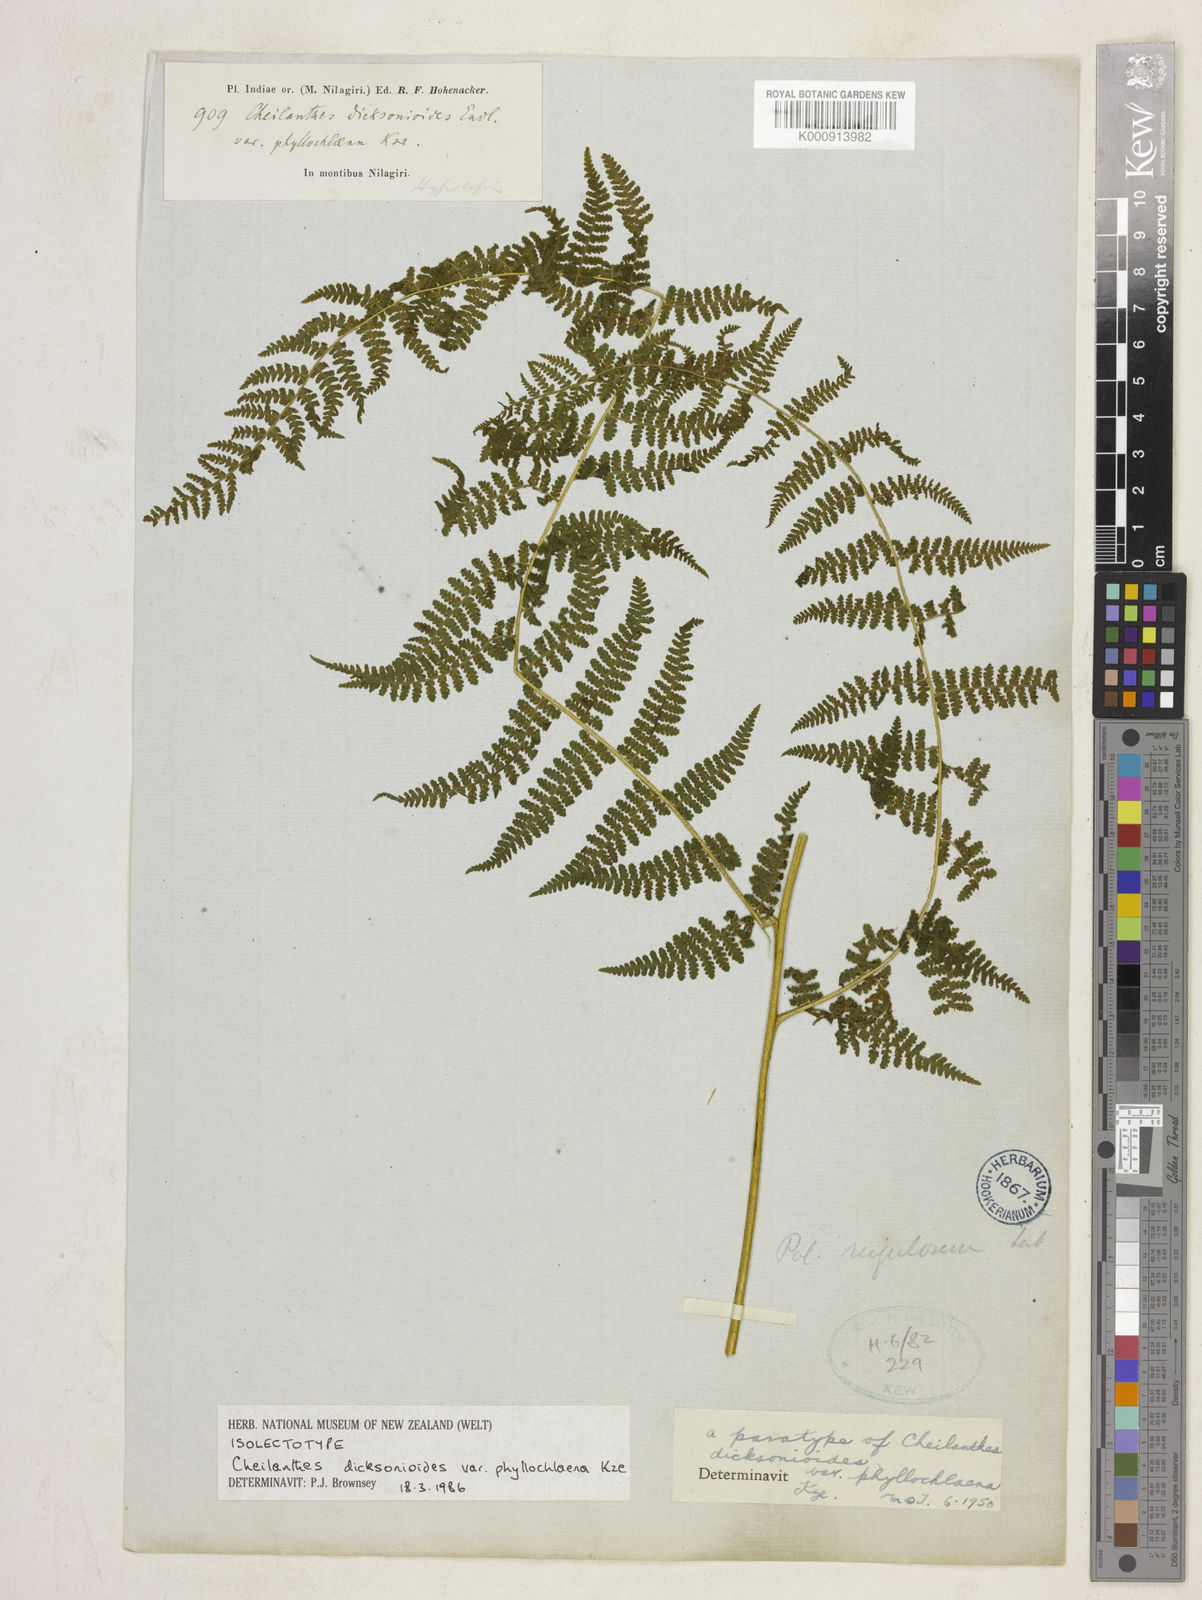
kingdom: Plantae
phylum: Tracheophyta
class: Polypodiopsida
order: Polypodiales
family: Dennstaedtiaceae
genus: Hypolepis
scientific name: Hypolepis dicksonioides
